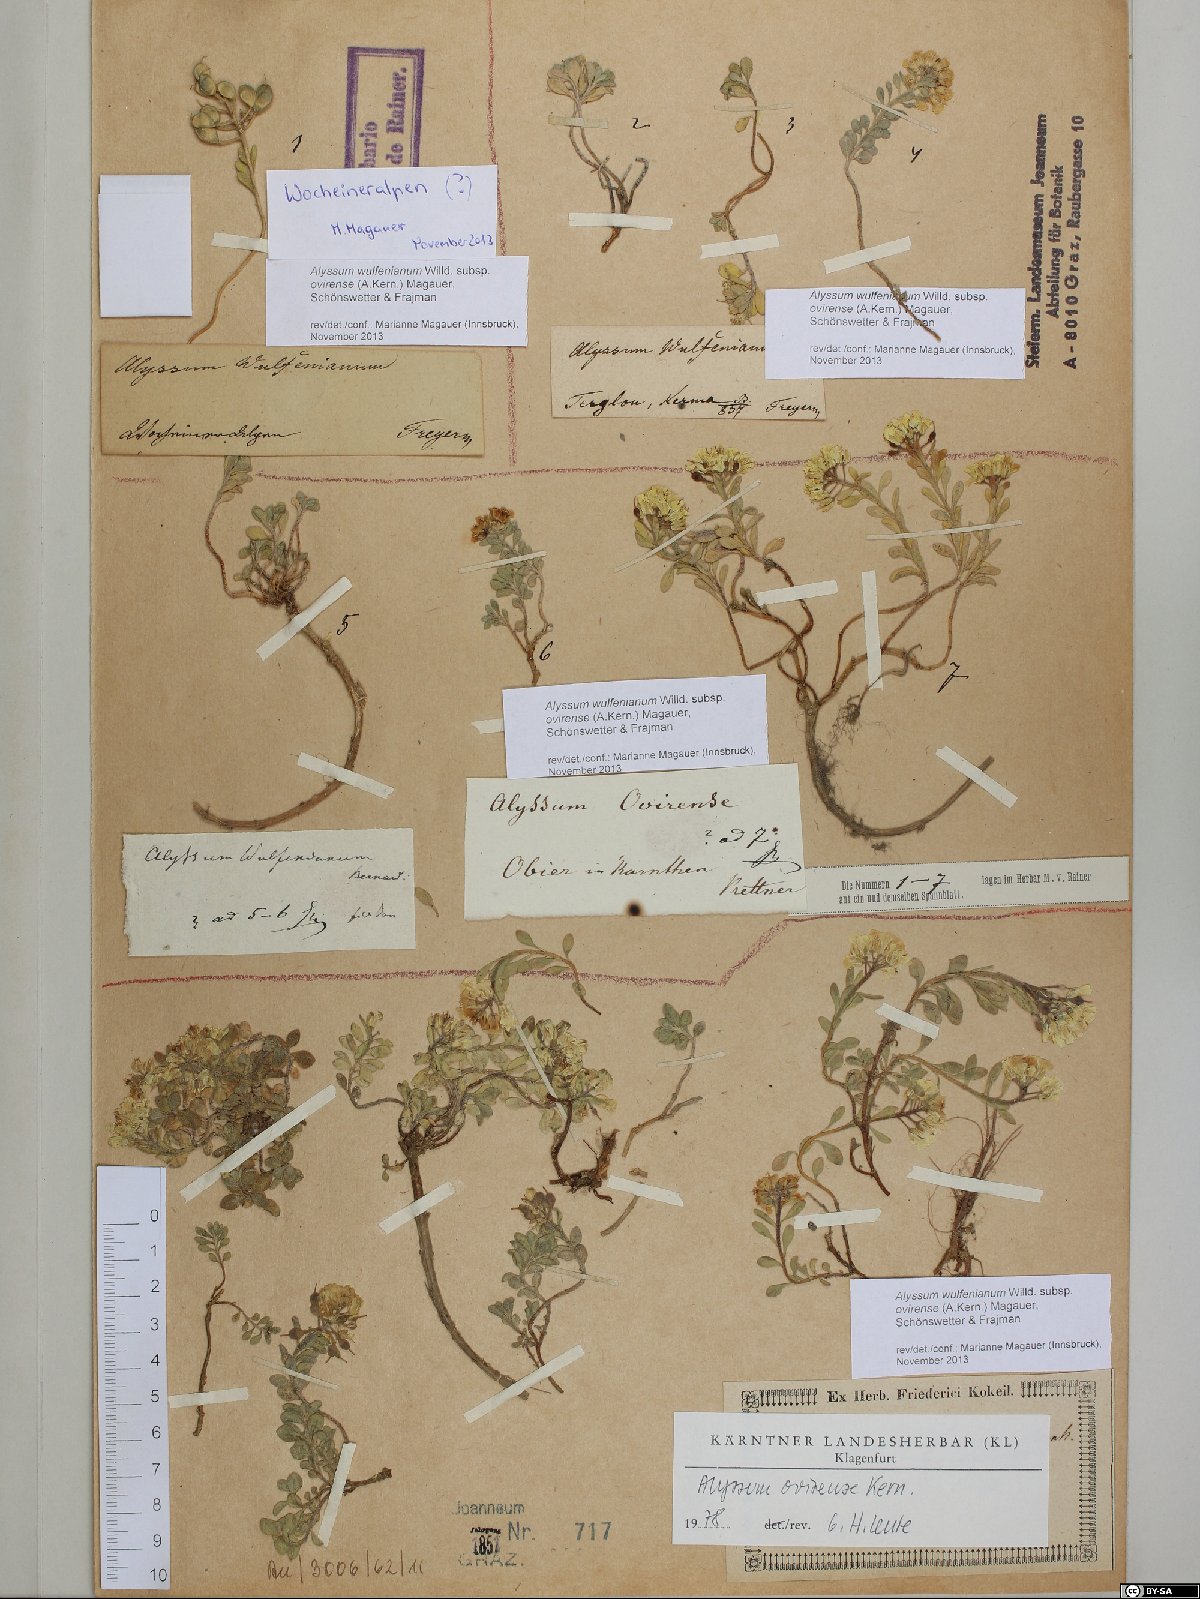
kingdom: Plantae
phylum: Tracheophyta
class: Magnoliopsida
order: Brassicales
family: Brassicaceae
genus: Alyssum
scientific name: Alyssum wulfenianum
